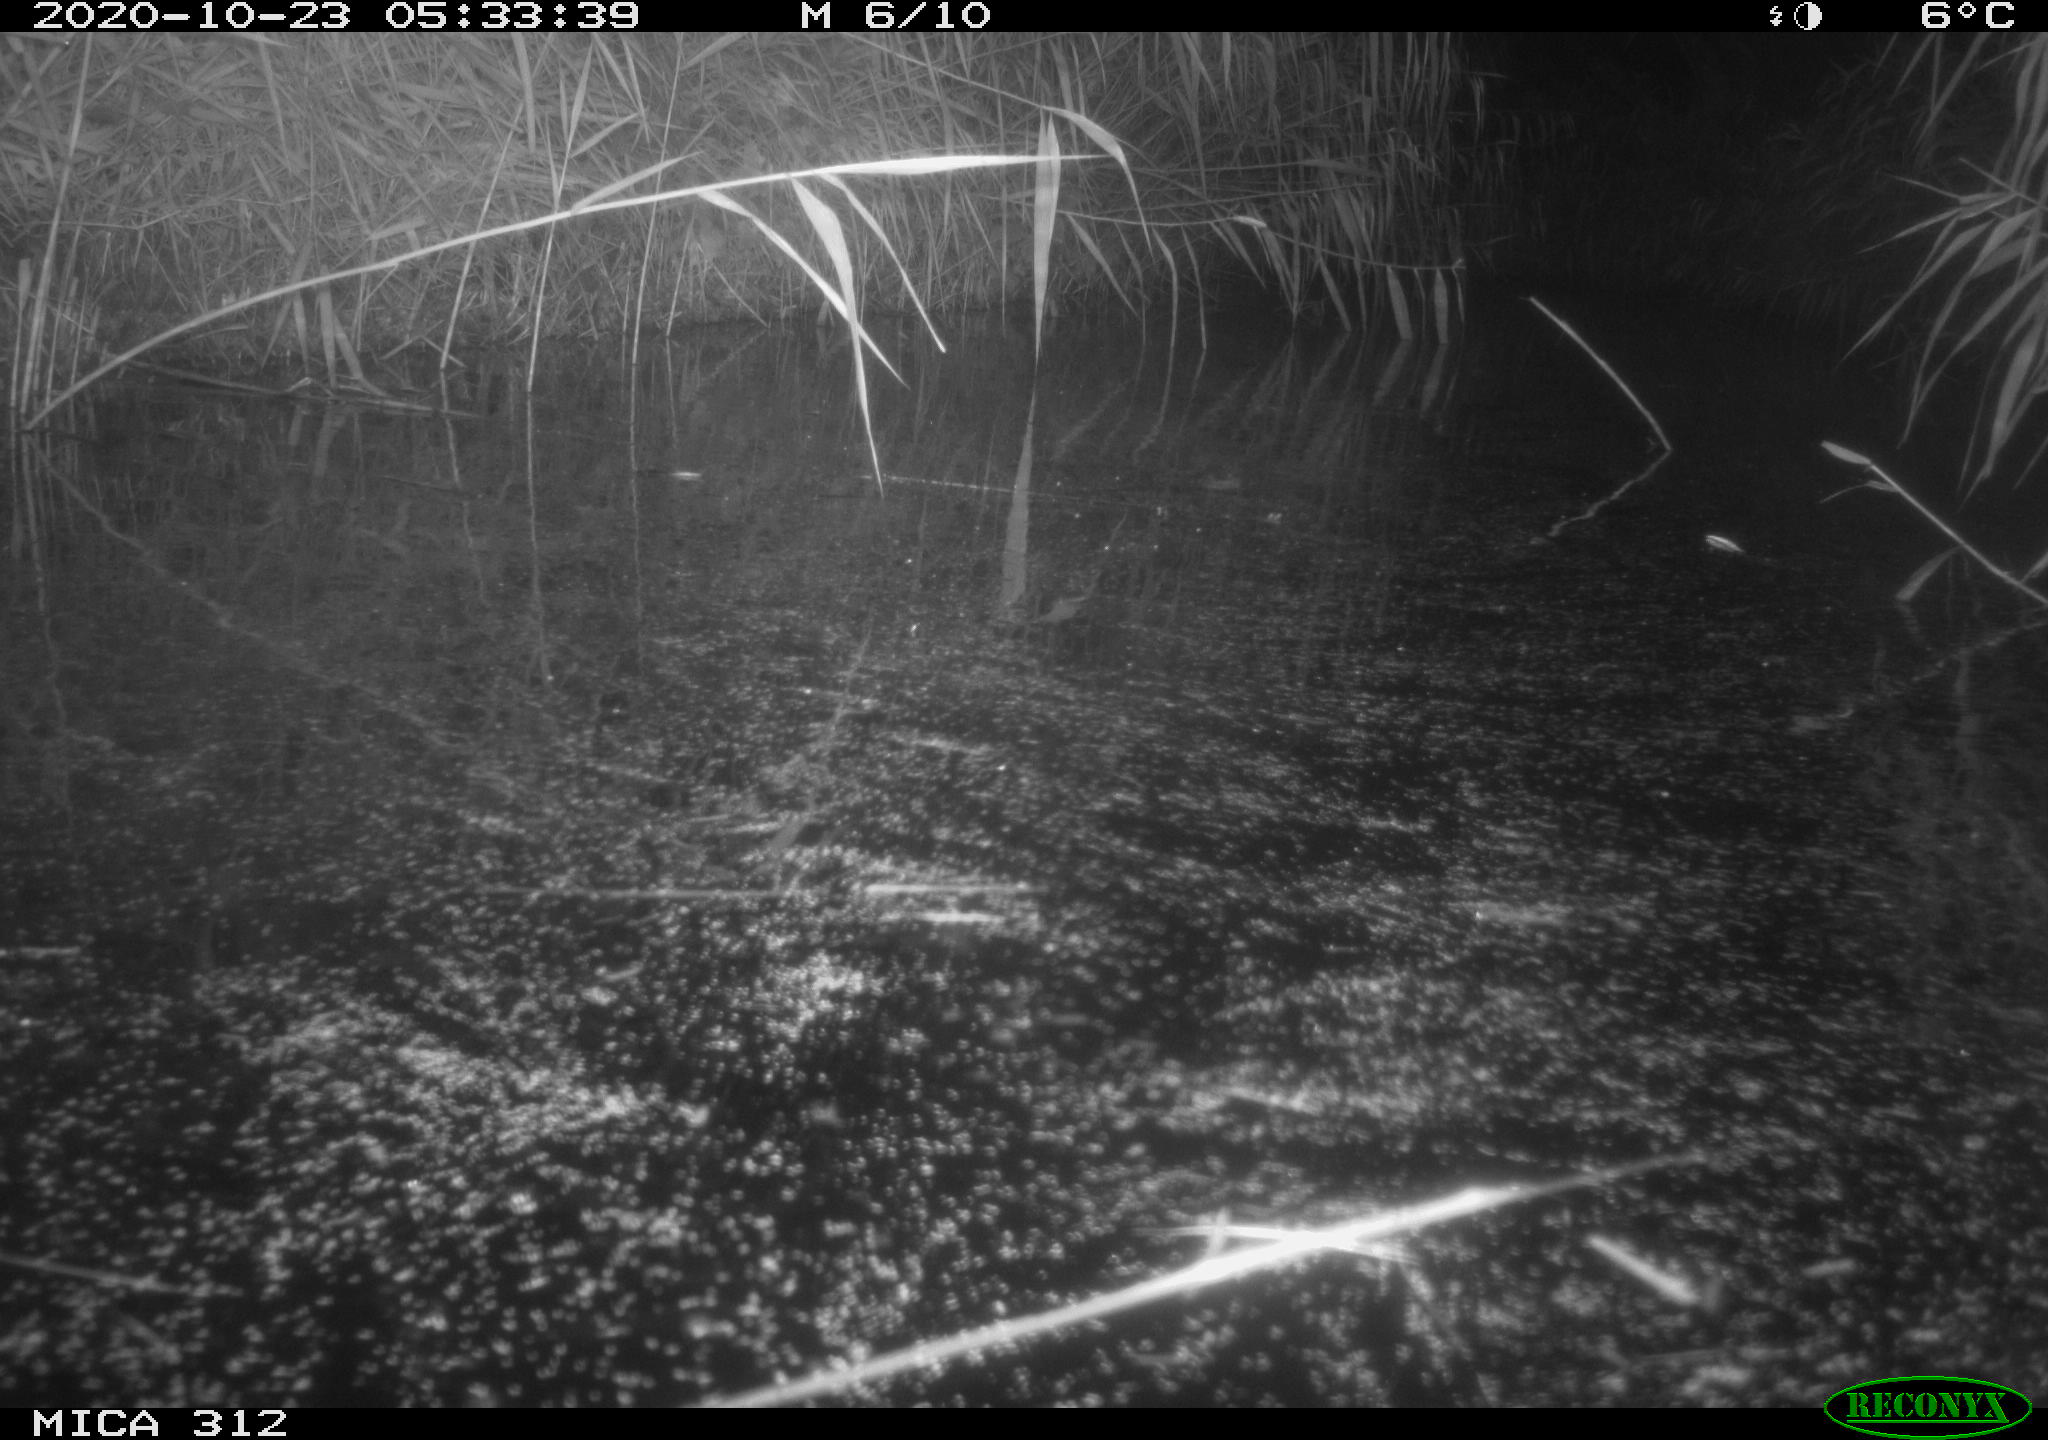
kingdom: Animalia
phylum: Chordata
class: Mammalia
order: Rodentia
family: Muridae
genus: Rattus
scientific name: Rattus norvegicus
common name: Brown rat
